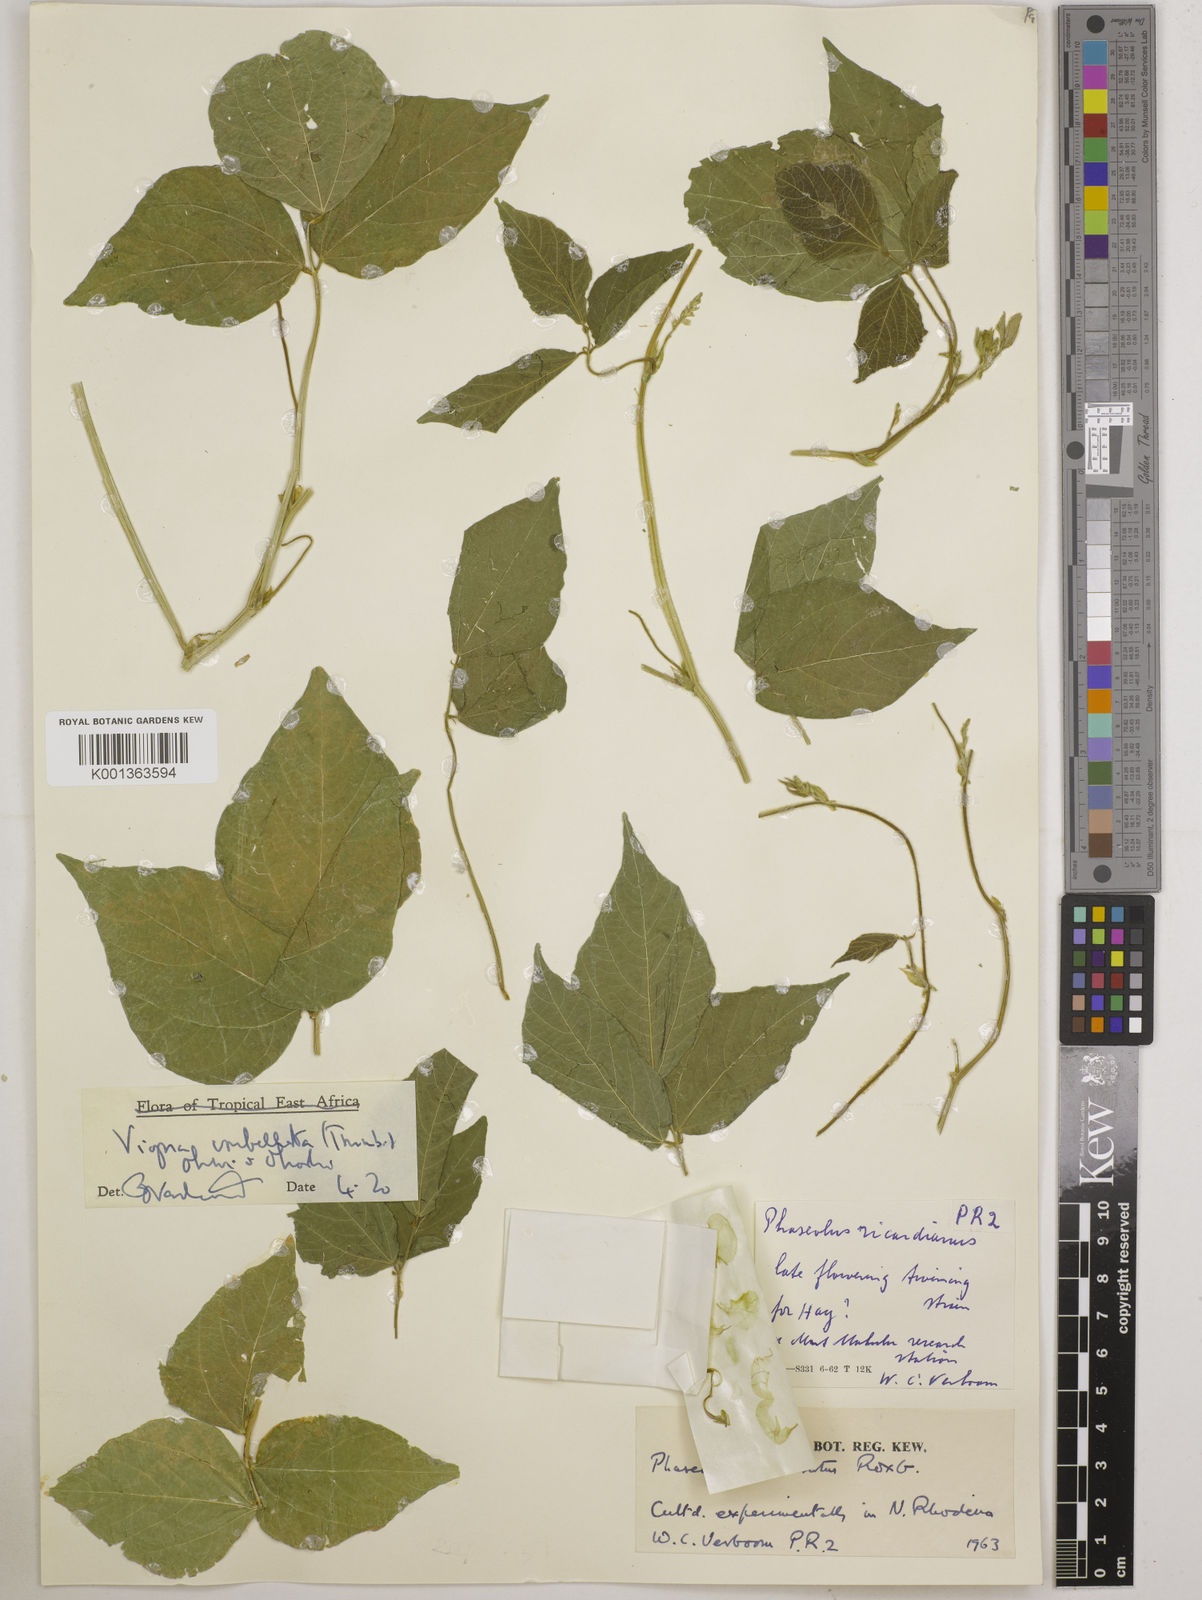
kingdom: Plantae
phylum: Tracheophyta
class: Magnoliopsida
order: Fabales
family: Fabaceae
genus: Vigna
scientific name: Vigna umbellata
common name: Oriental-bean
